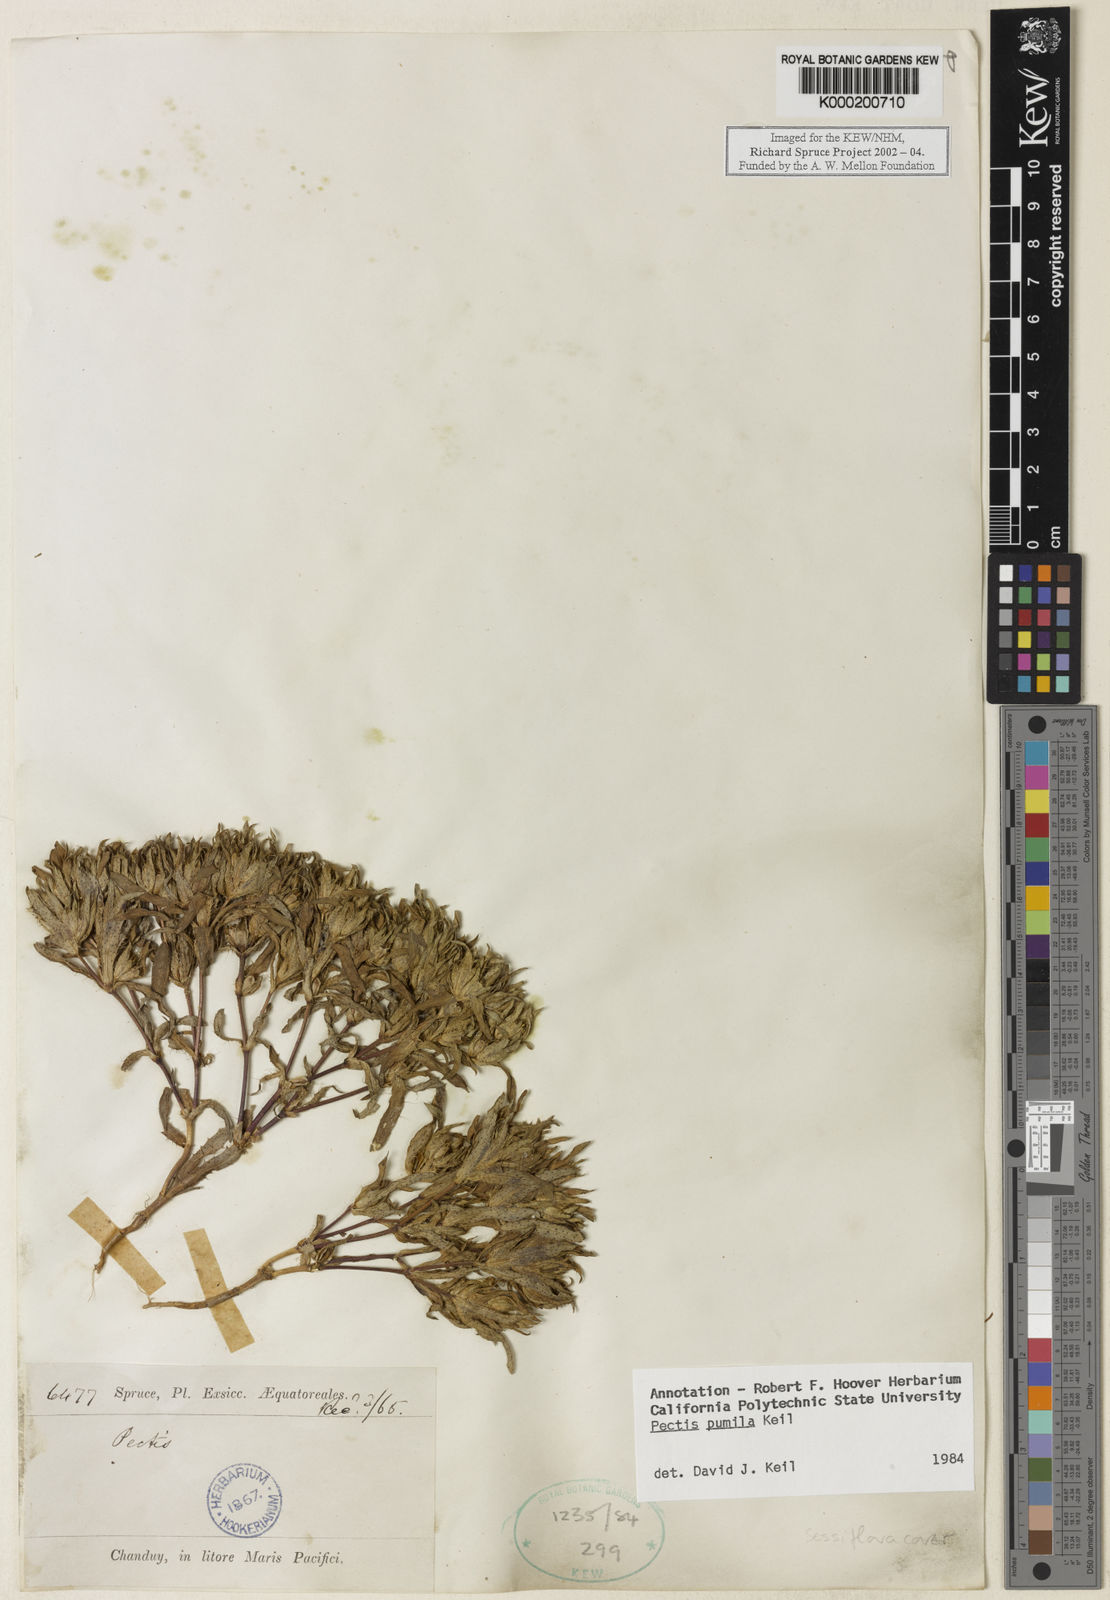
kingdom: Plantae
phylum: Tracheophyta
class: Magnoliopsida
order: Asterales
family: Asteraceae
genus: Pectis
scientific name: Pectis pumila
